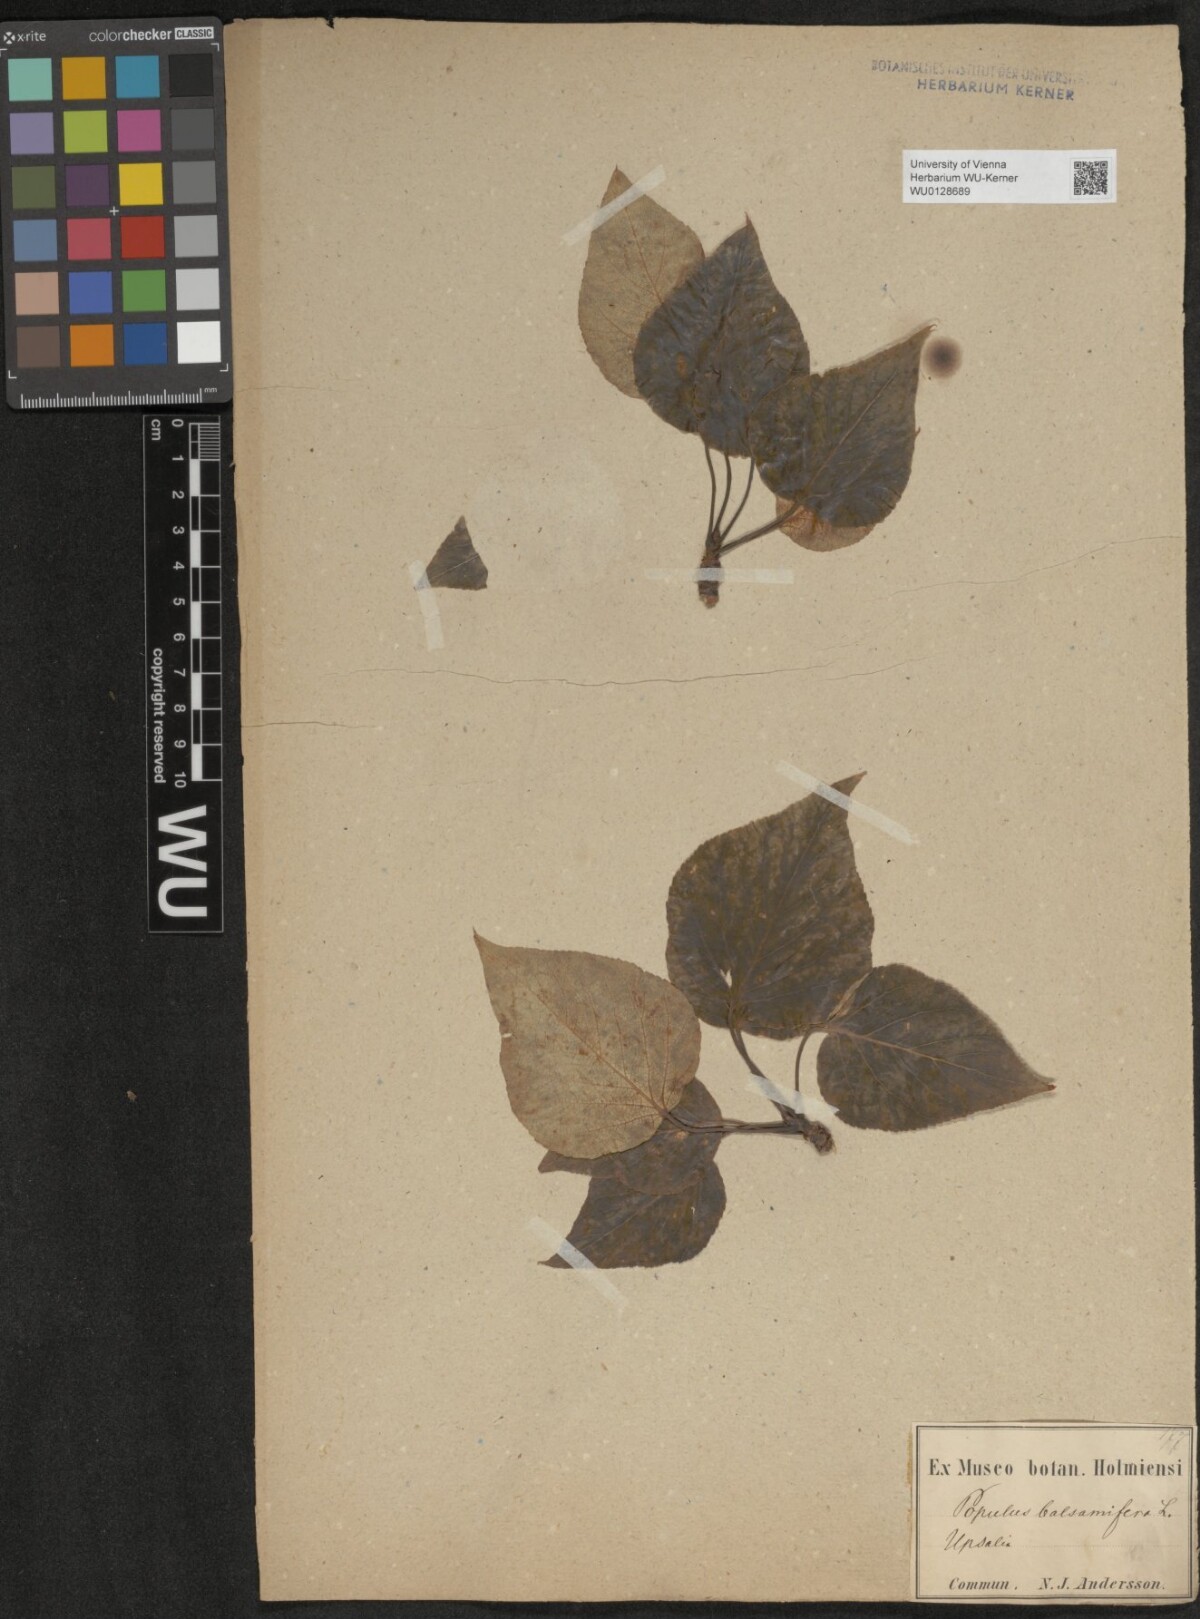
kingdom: Plantae
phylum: Tracheophyta
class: Magnoliopsida
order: Malpighiales
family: Salicaceae
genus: Populus
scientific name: Populus balsamifera
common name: Balsam poplar
